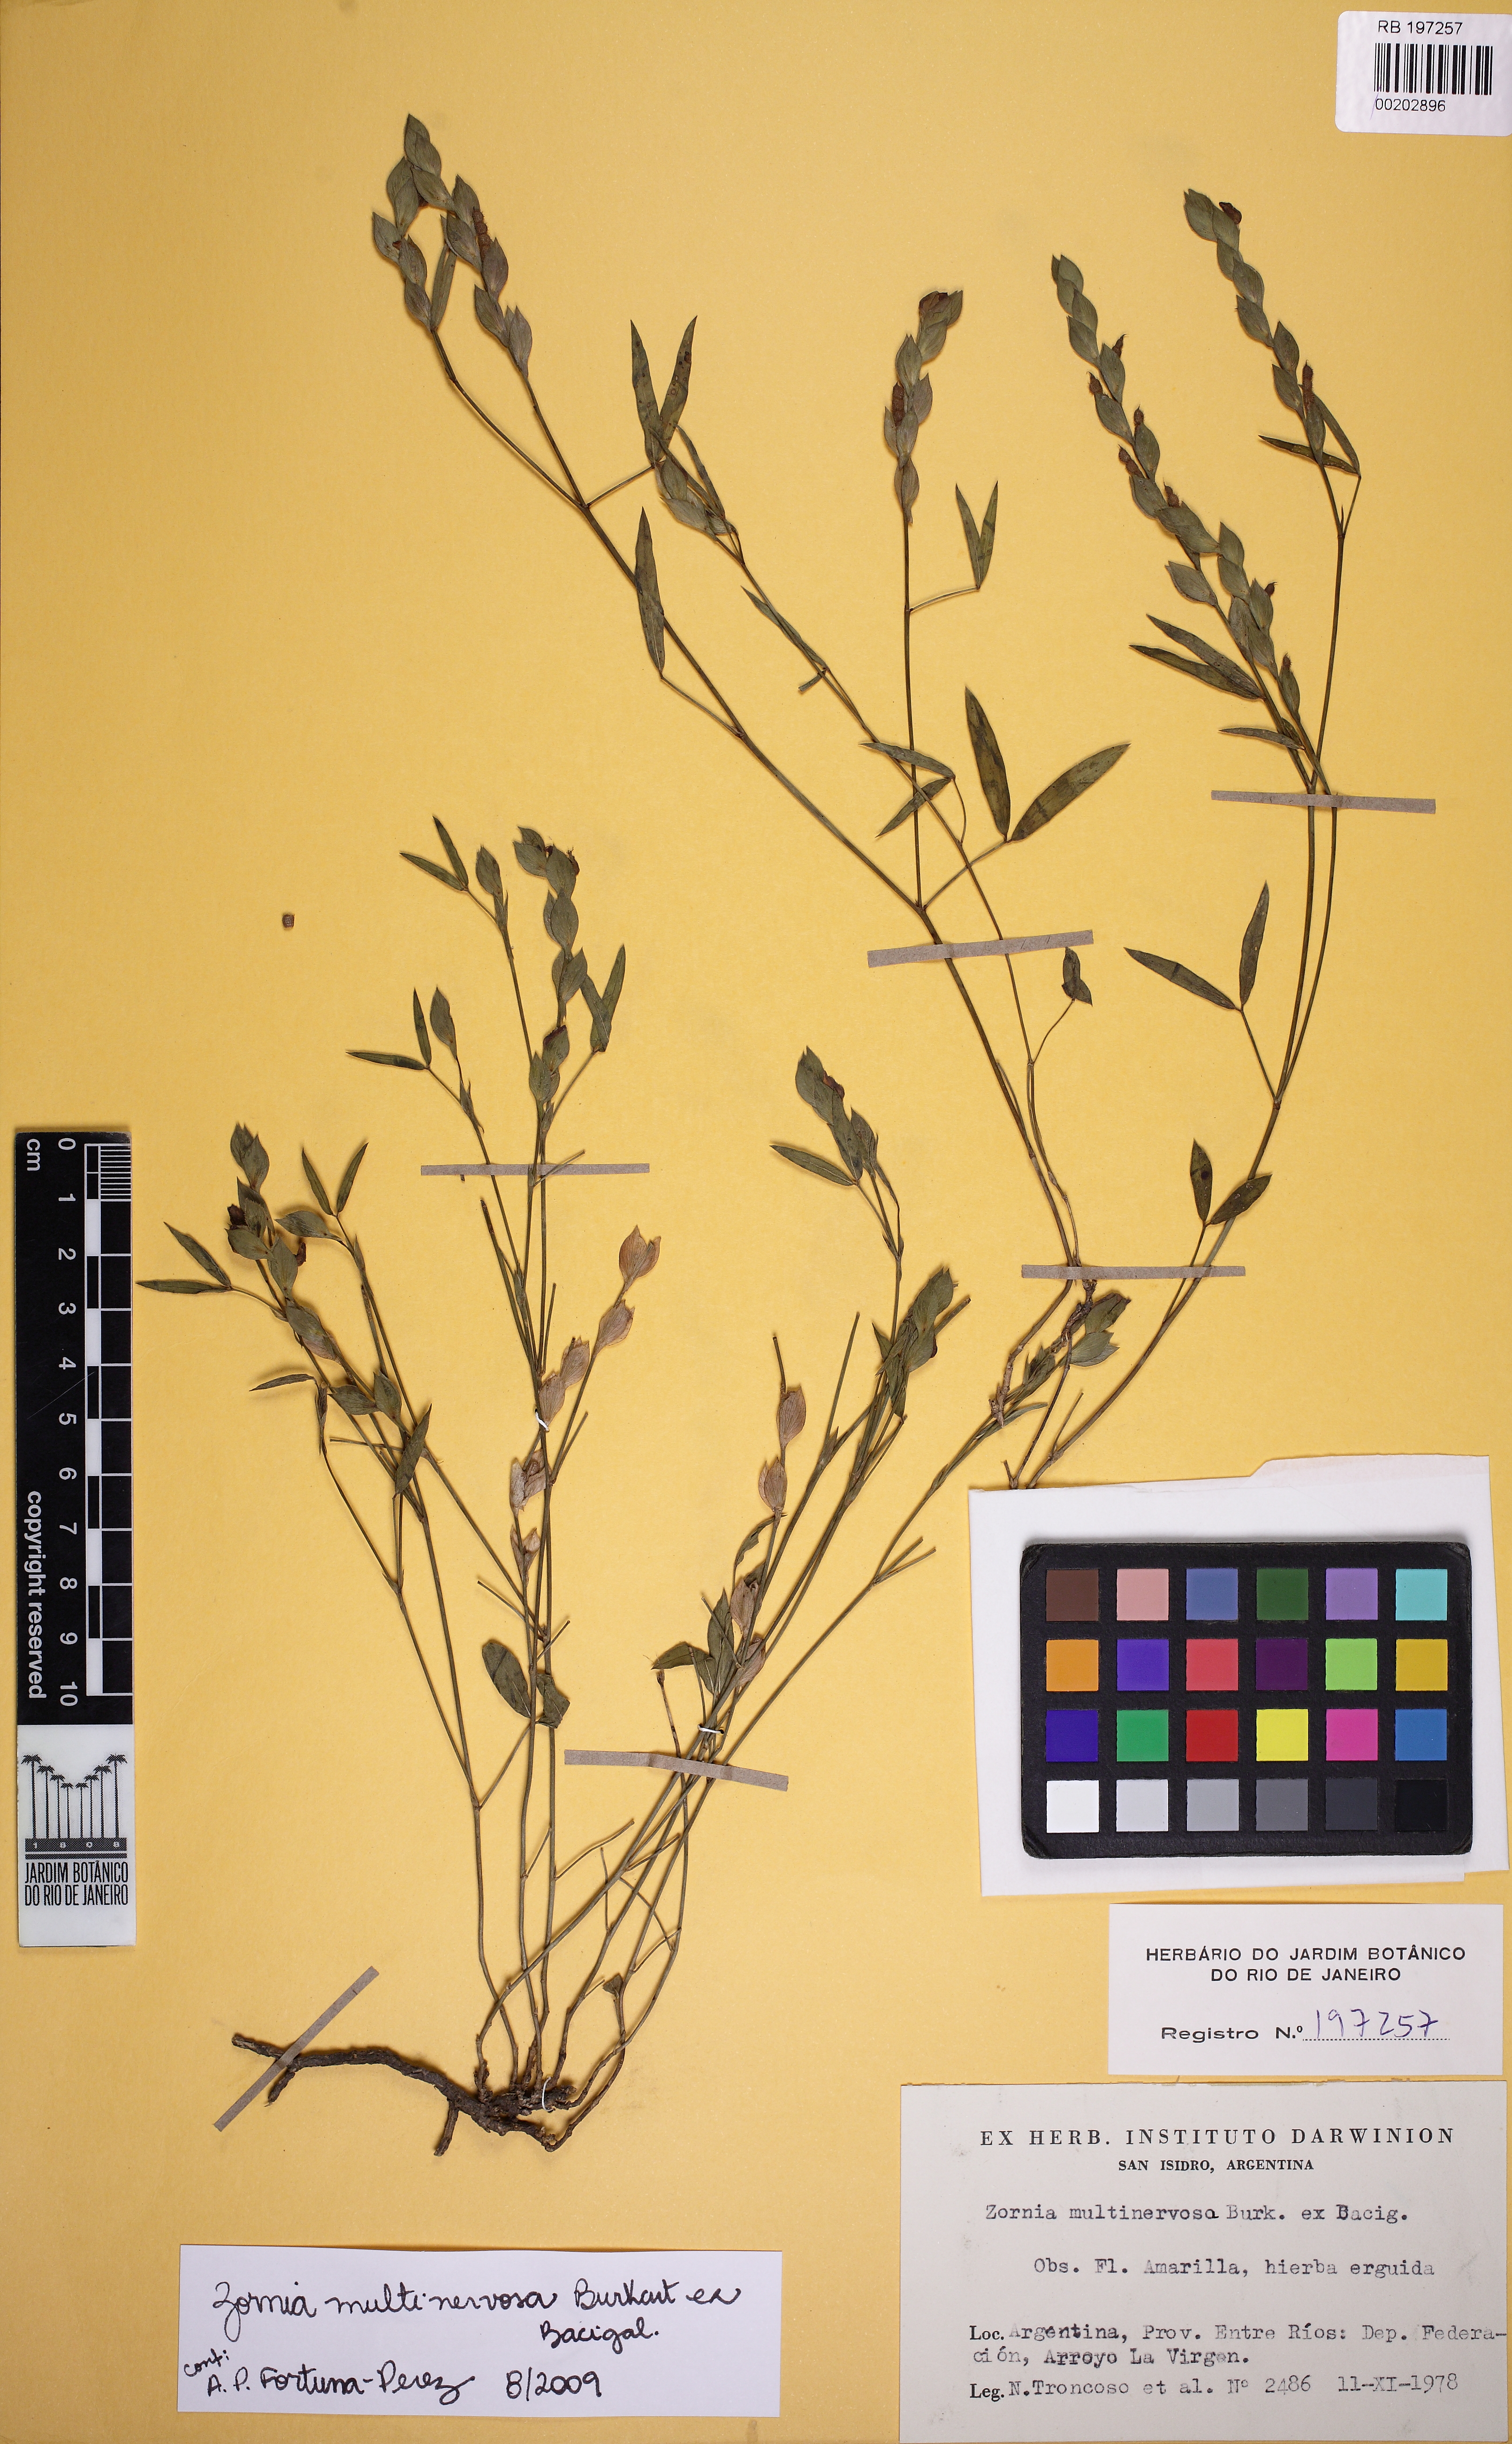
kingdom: Plantae
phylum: Tracheophyta
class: Magnoliopsida
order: Fabales
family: Fabaceae
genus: Zornia
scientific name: Zornia multinervosa
